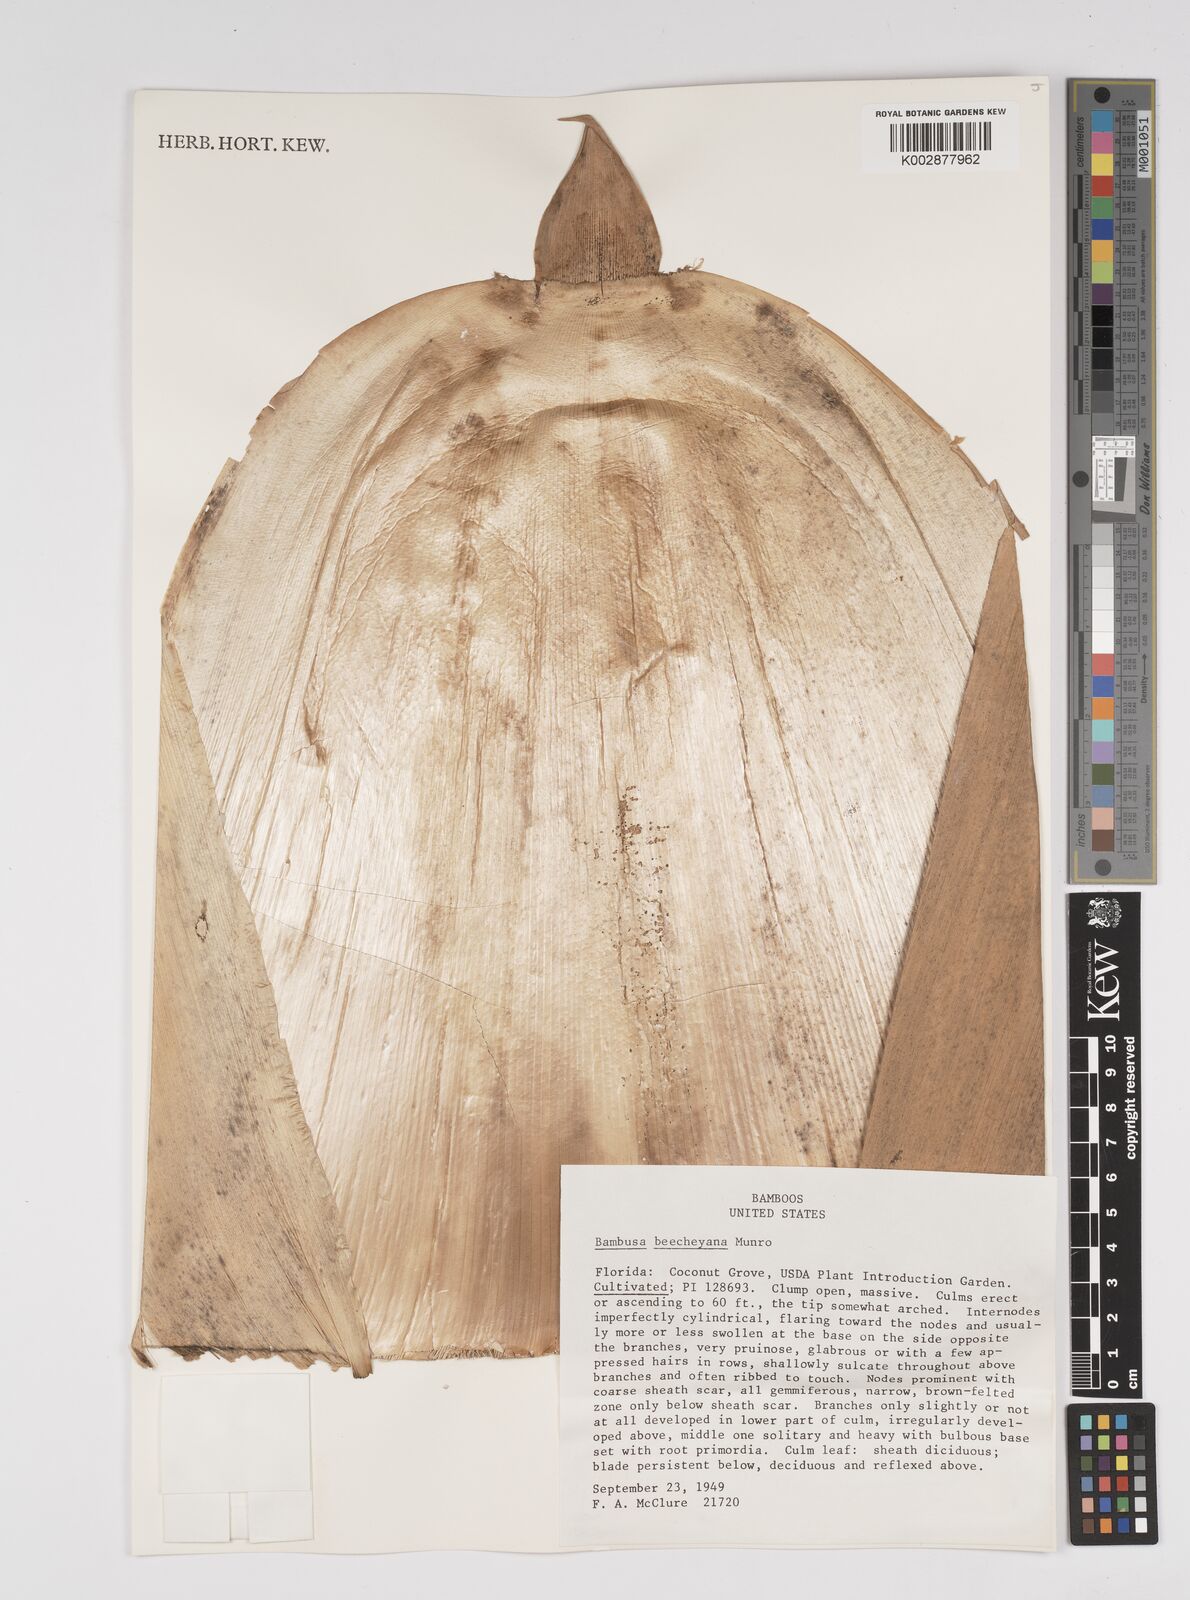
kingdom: Plantae
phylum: Tracheophyta
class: Liliopsida
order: Poales
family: Poaceae
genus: Bambusa
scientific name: Bambusa beecheyana
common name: Beechey's bamboo
